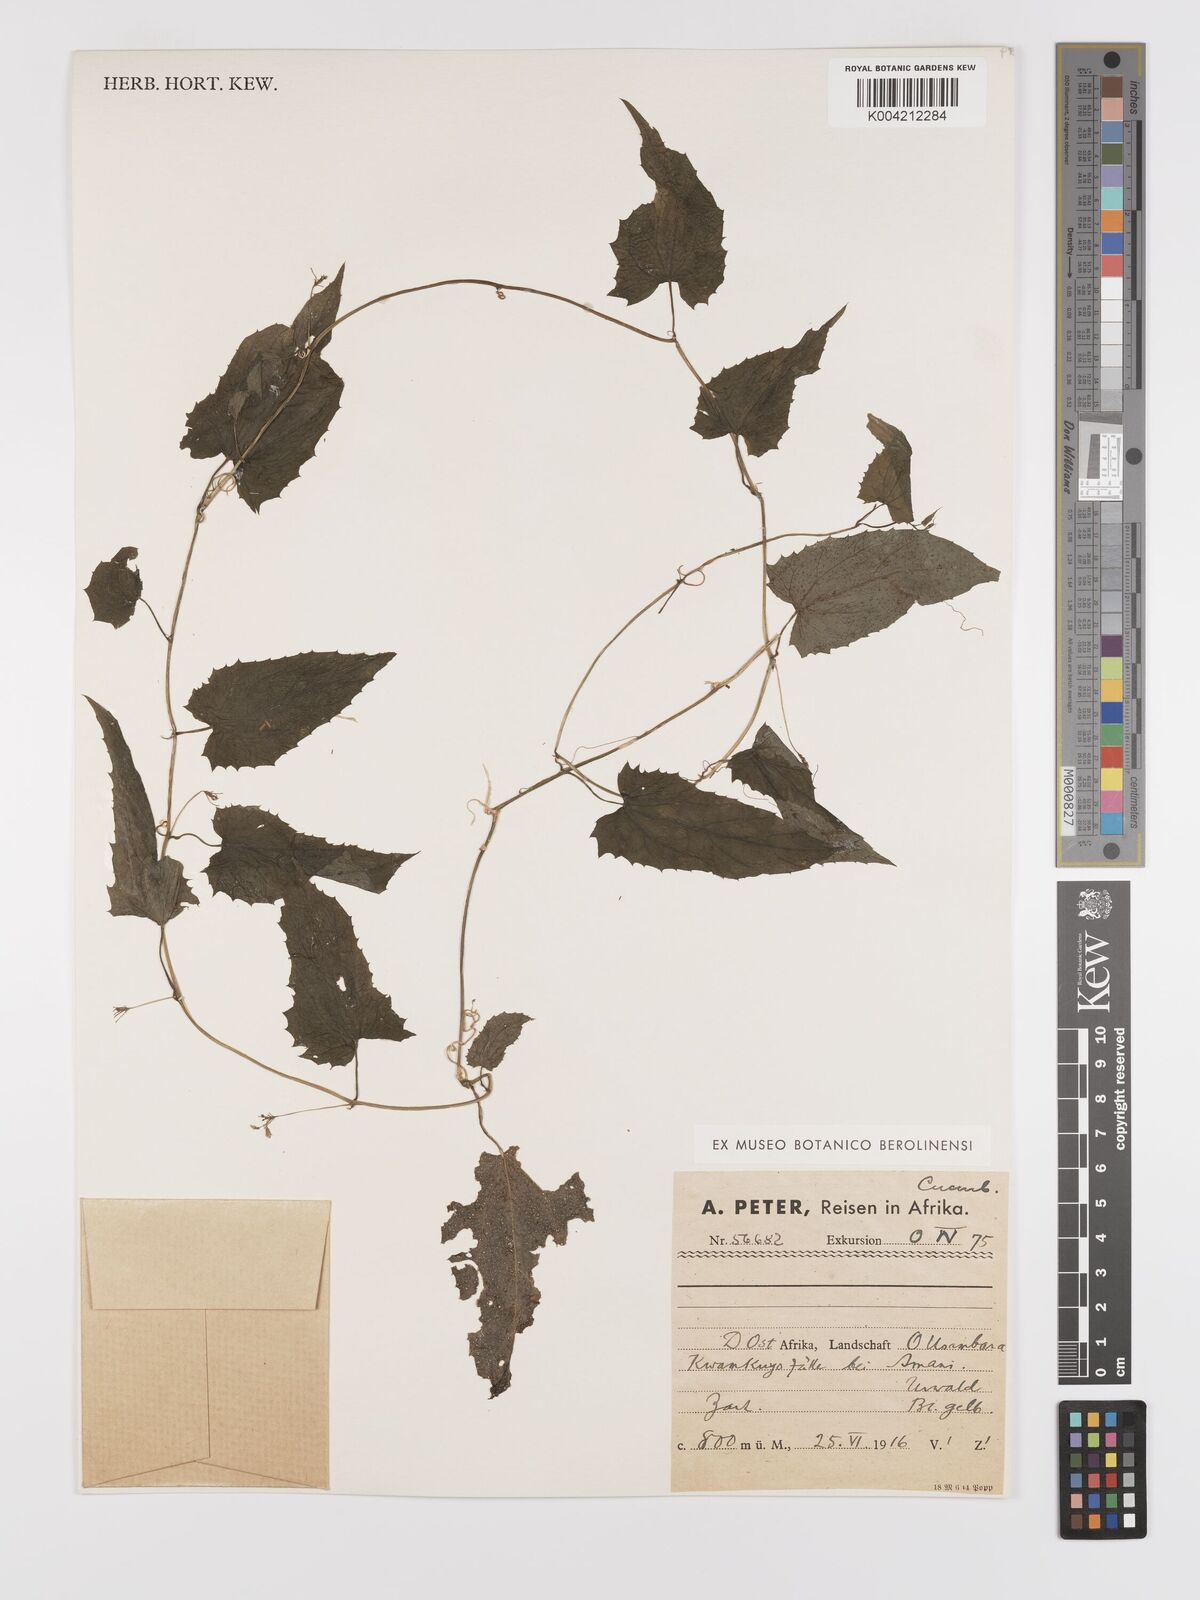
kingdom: Plantae
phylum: Tracheophyta
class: Magnoliopsida
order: Cucurbitales
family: Cucurbitaceae
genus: Kedrostis
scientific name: Kedrostis heterophylla
